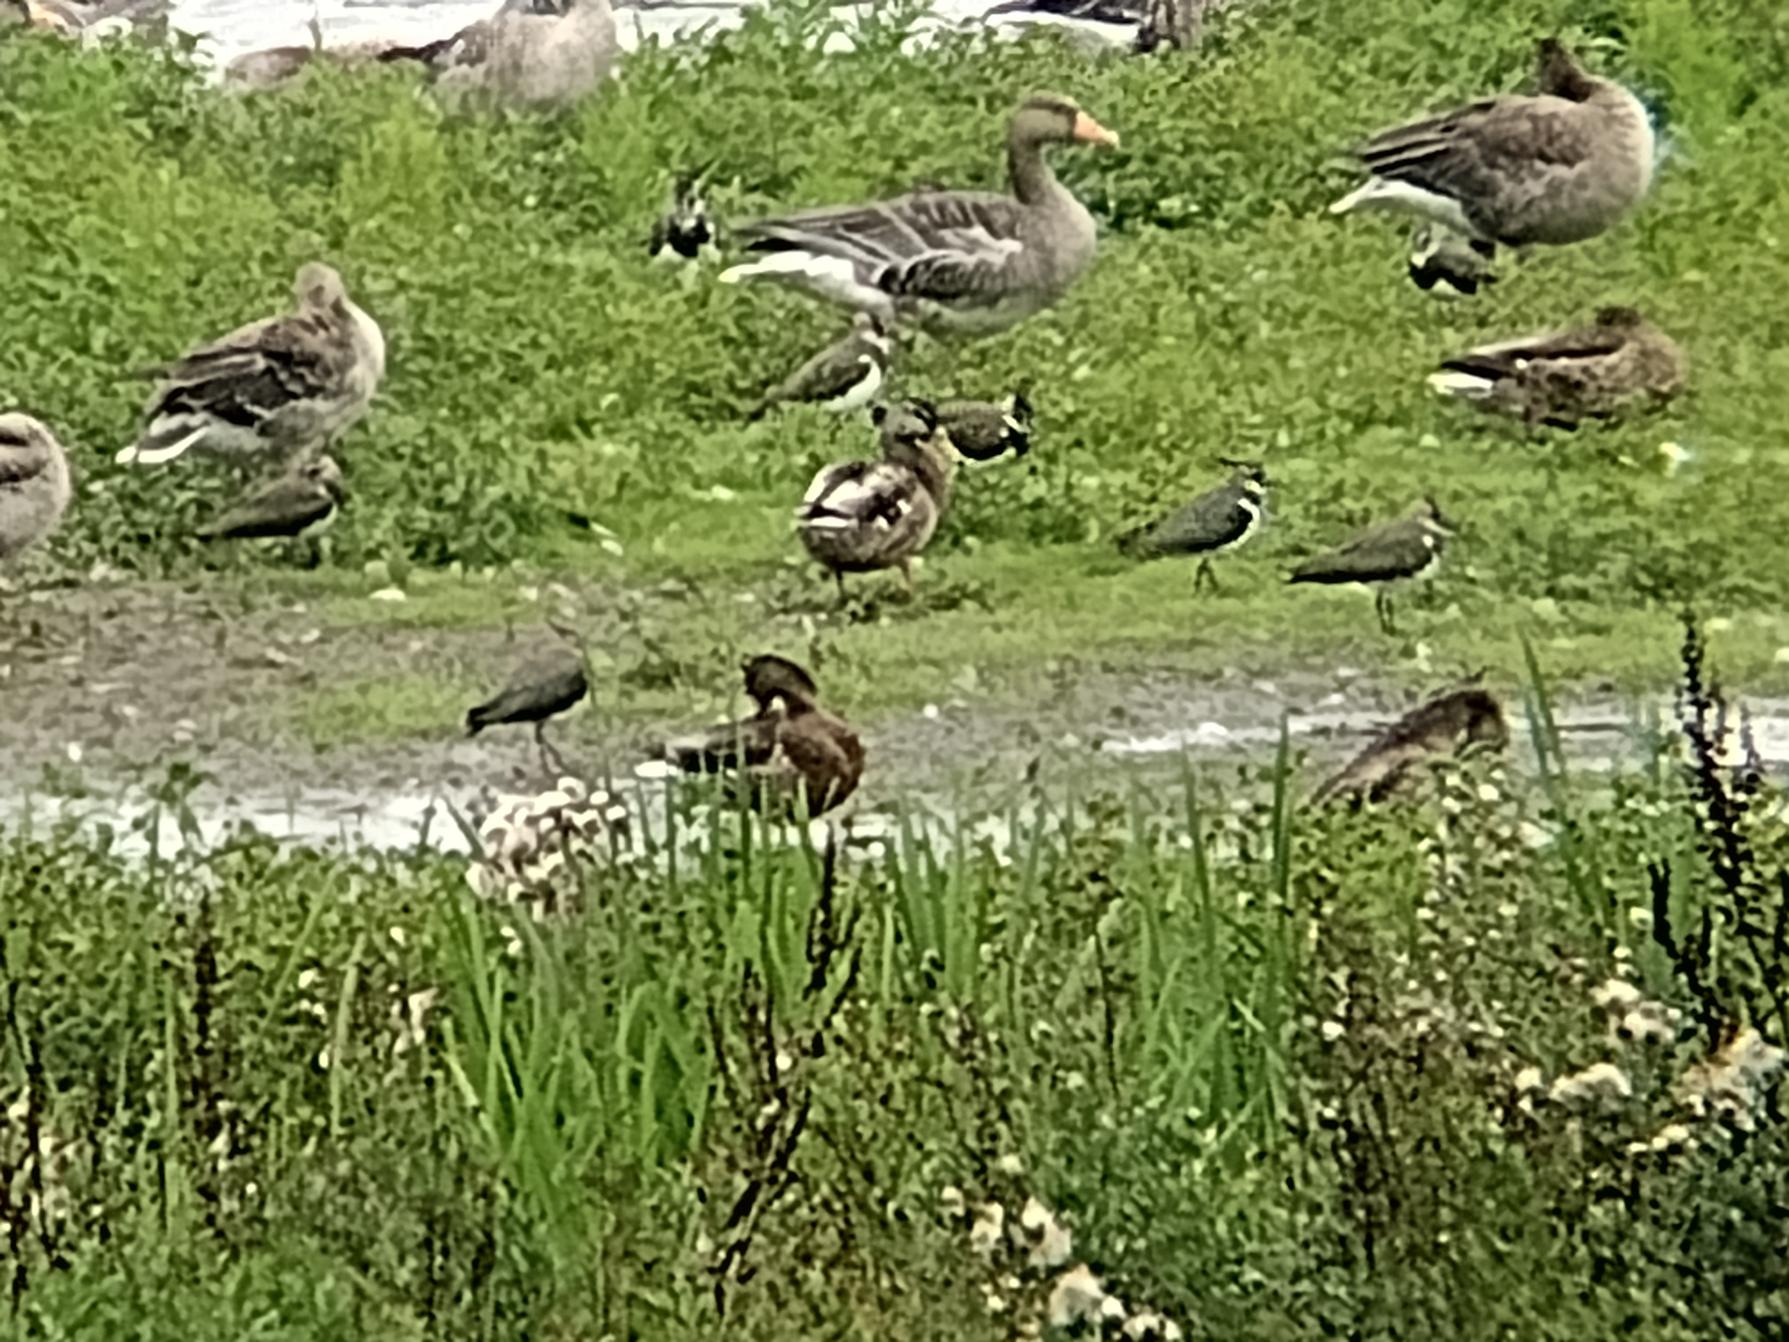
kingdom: Animalia
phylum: Chordata
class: Aves
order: Charadriiformes
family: Charadriidae
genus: Vanellus
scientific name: Vanellus vanellus
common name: Vibe
